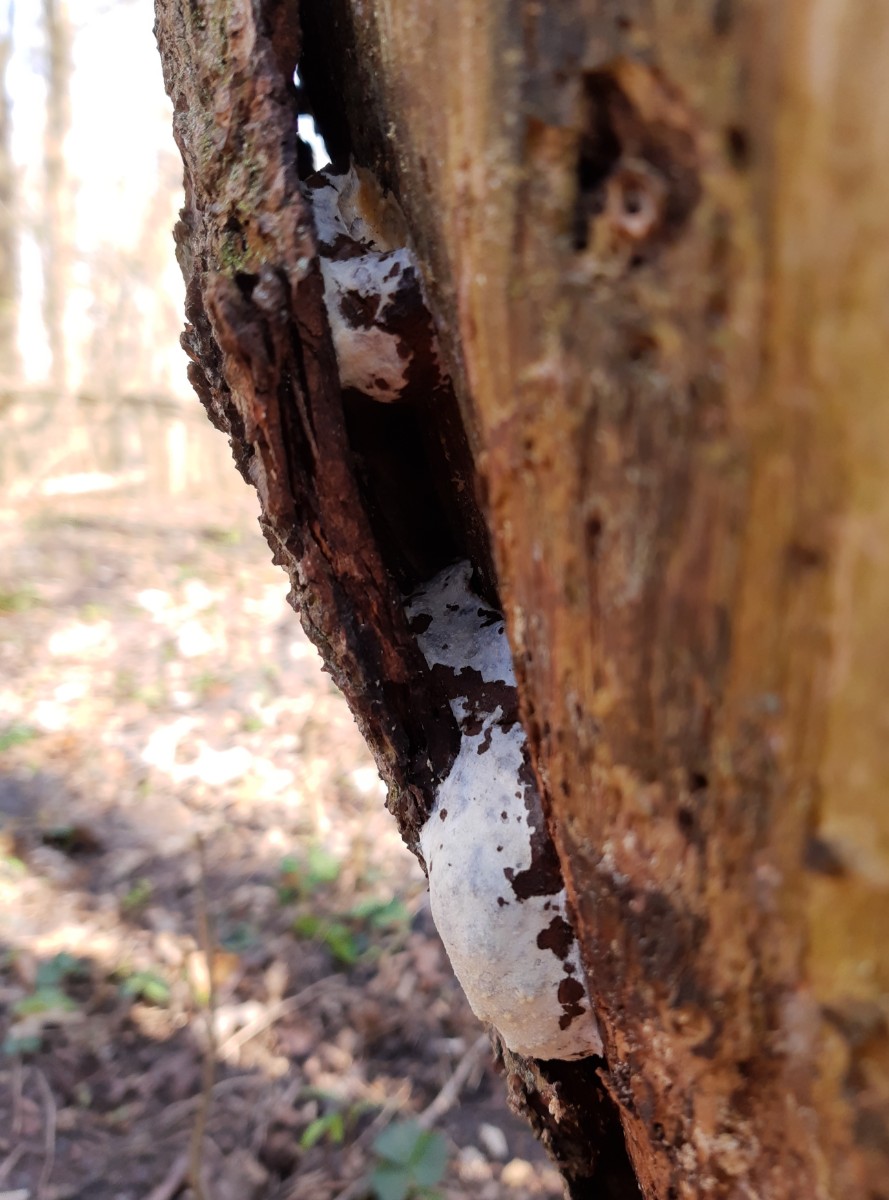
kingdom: Protozoa
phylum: Mycetozoa
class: Myxomycetes
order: Cribrariales
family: Tubiferaceae
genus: Reticularia
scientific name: Reticularia lycoperdon
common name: skinnende støvpude
